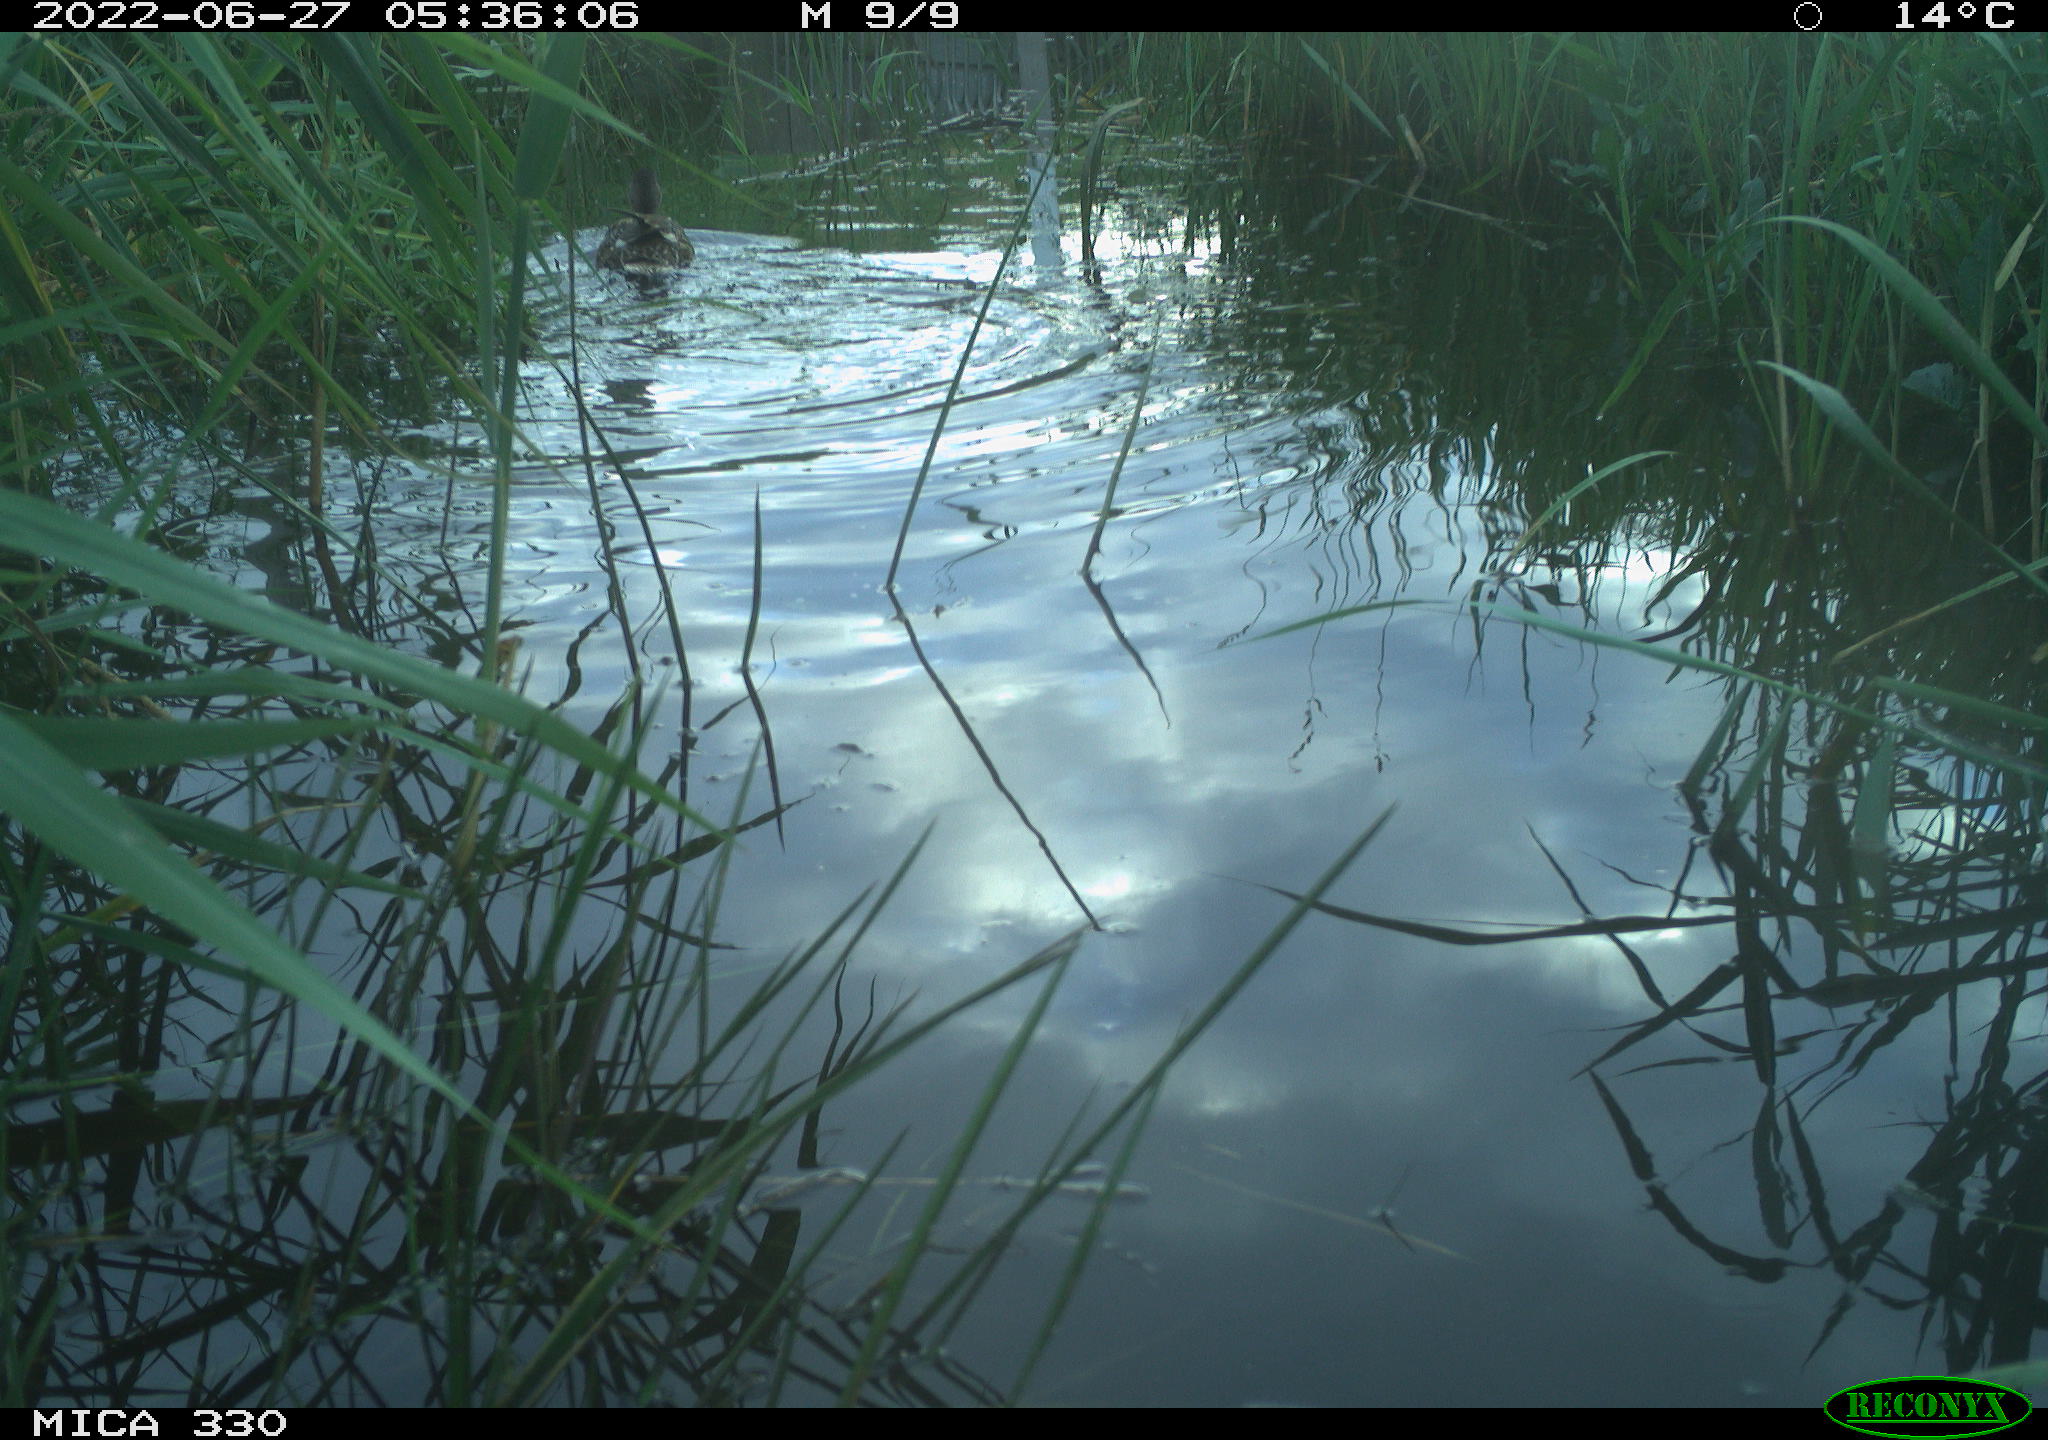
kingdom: Animalia
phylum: Chordata
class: Aves
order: Anseriformes
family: Anatidae
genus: Mareca
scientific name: Mareca strepera
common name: Gadwall
